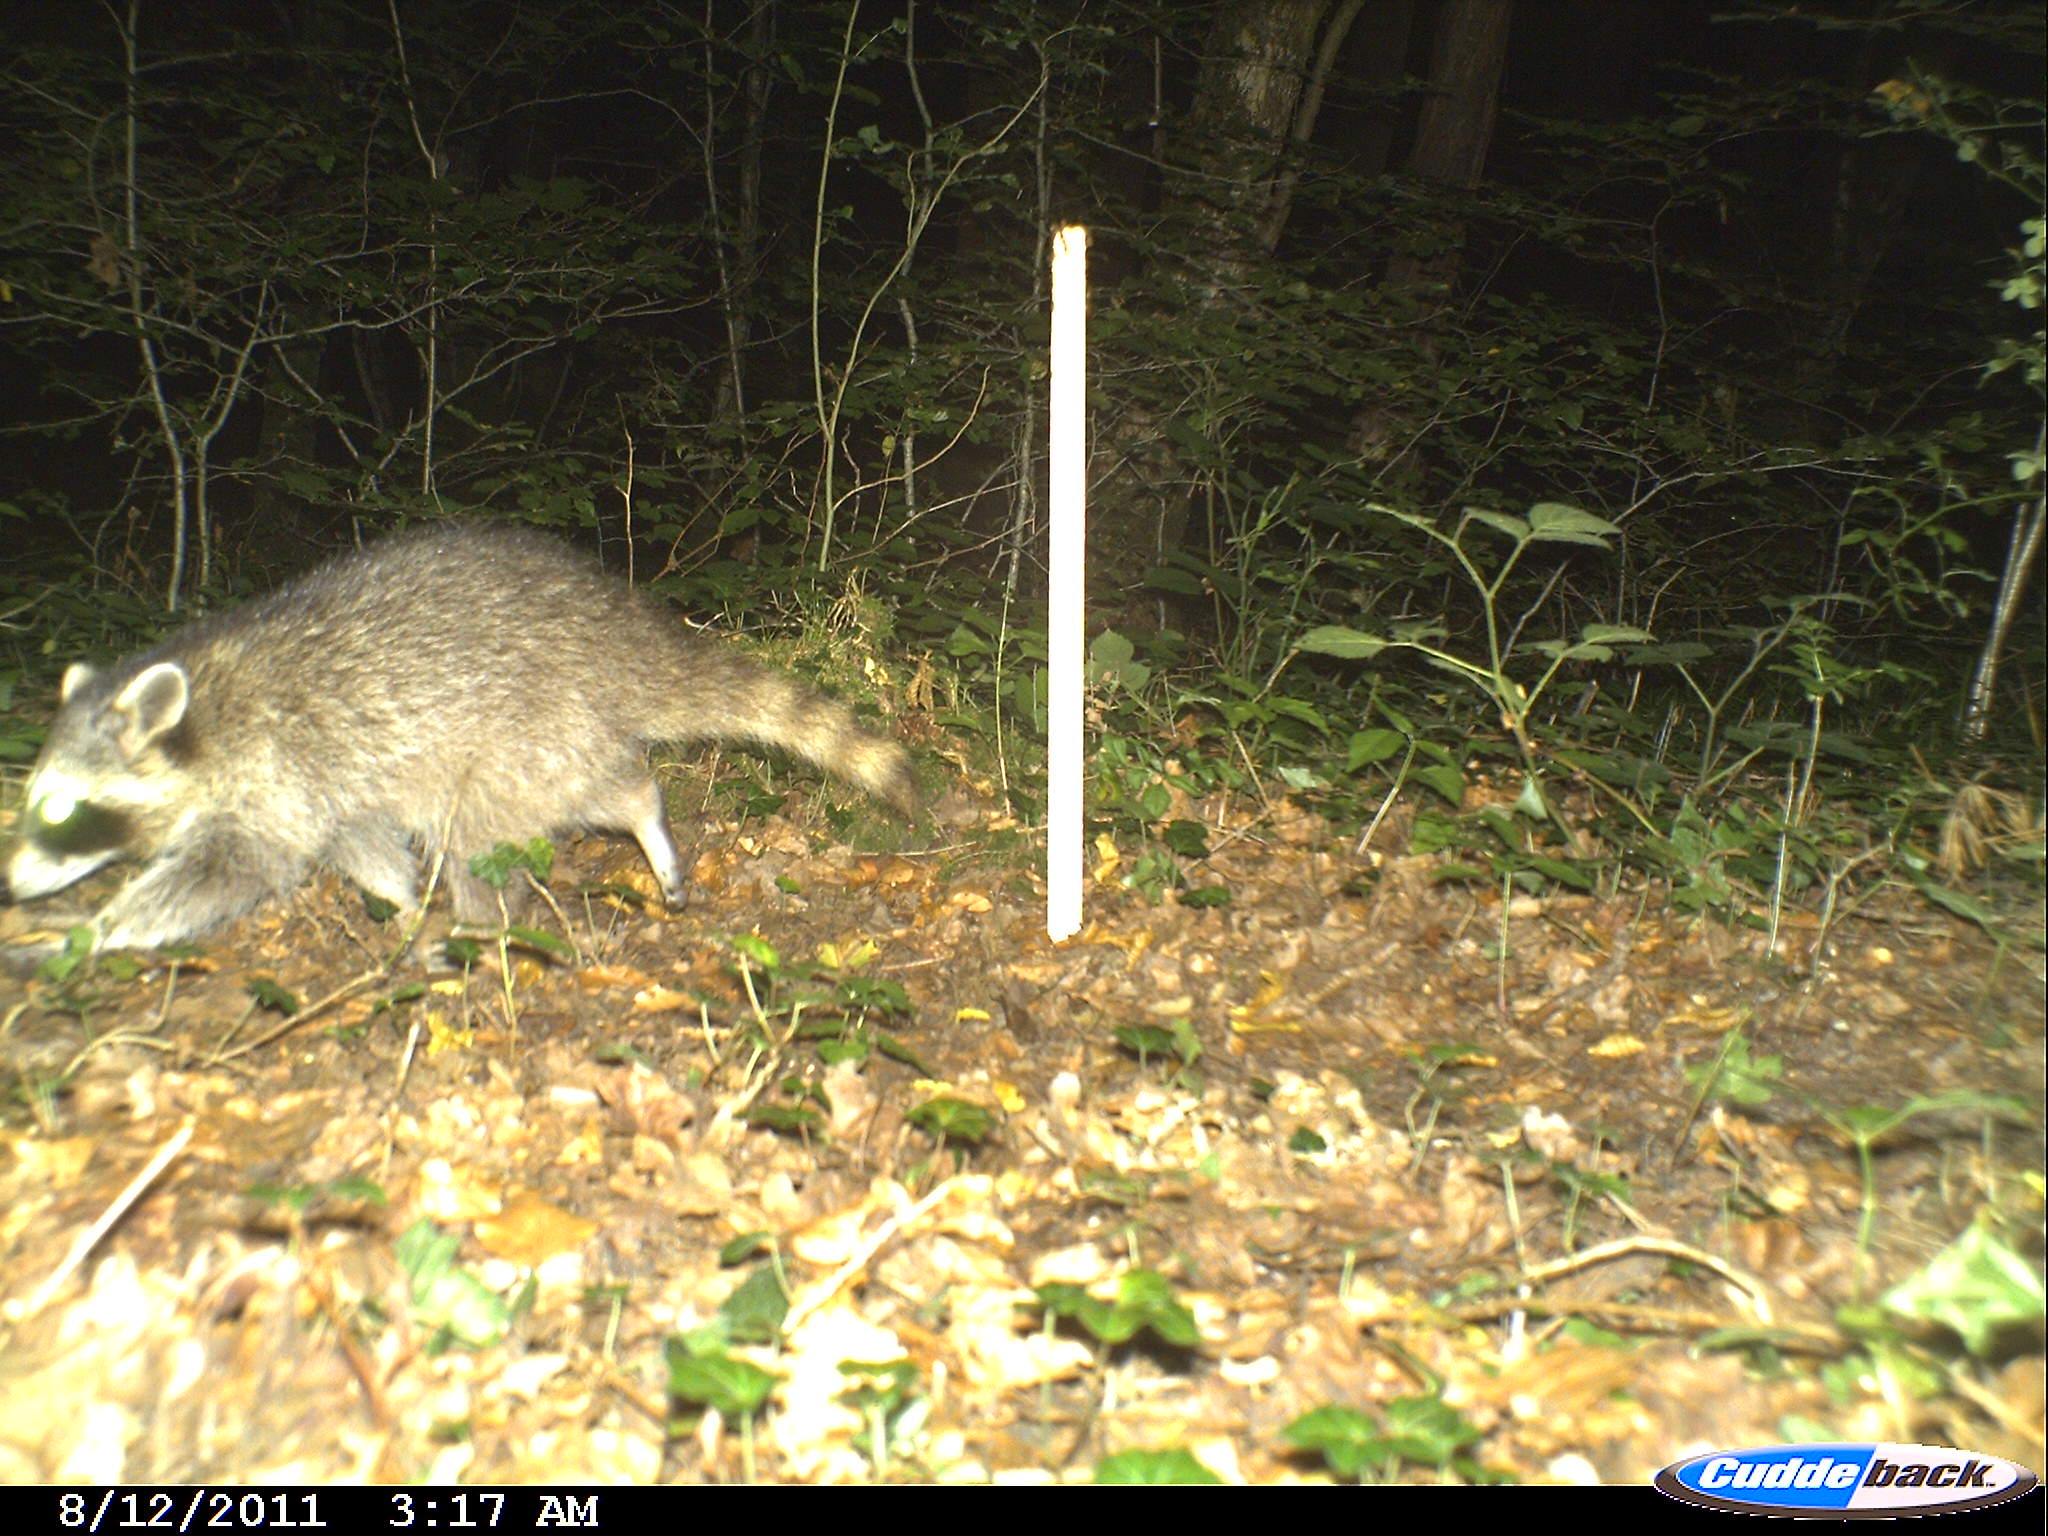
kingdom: Animalia
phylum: Chordata
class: Mammalia
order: Carnivora
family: Procyonidae
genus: Procyon
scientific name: Procyon lotor
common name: Raccoon
